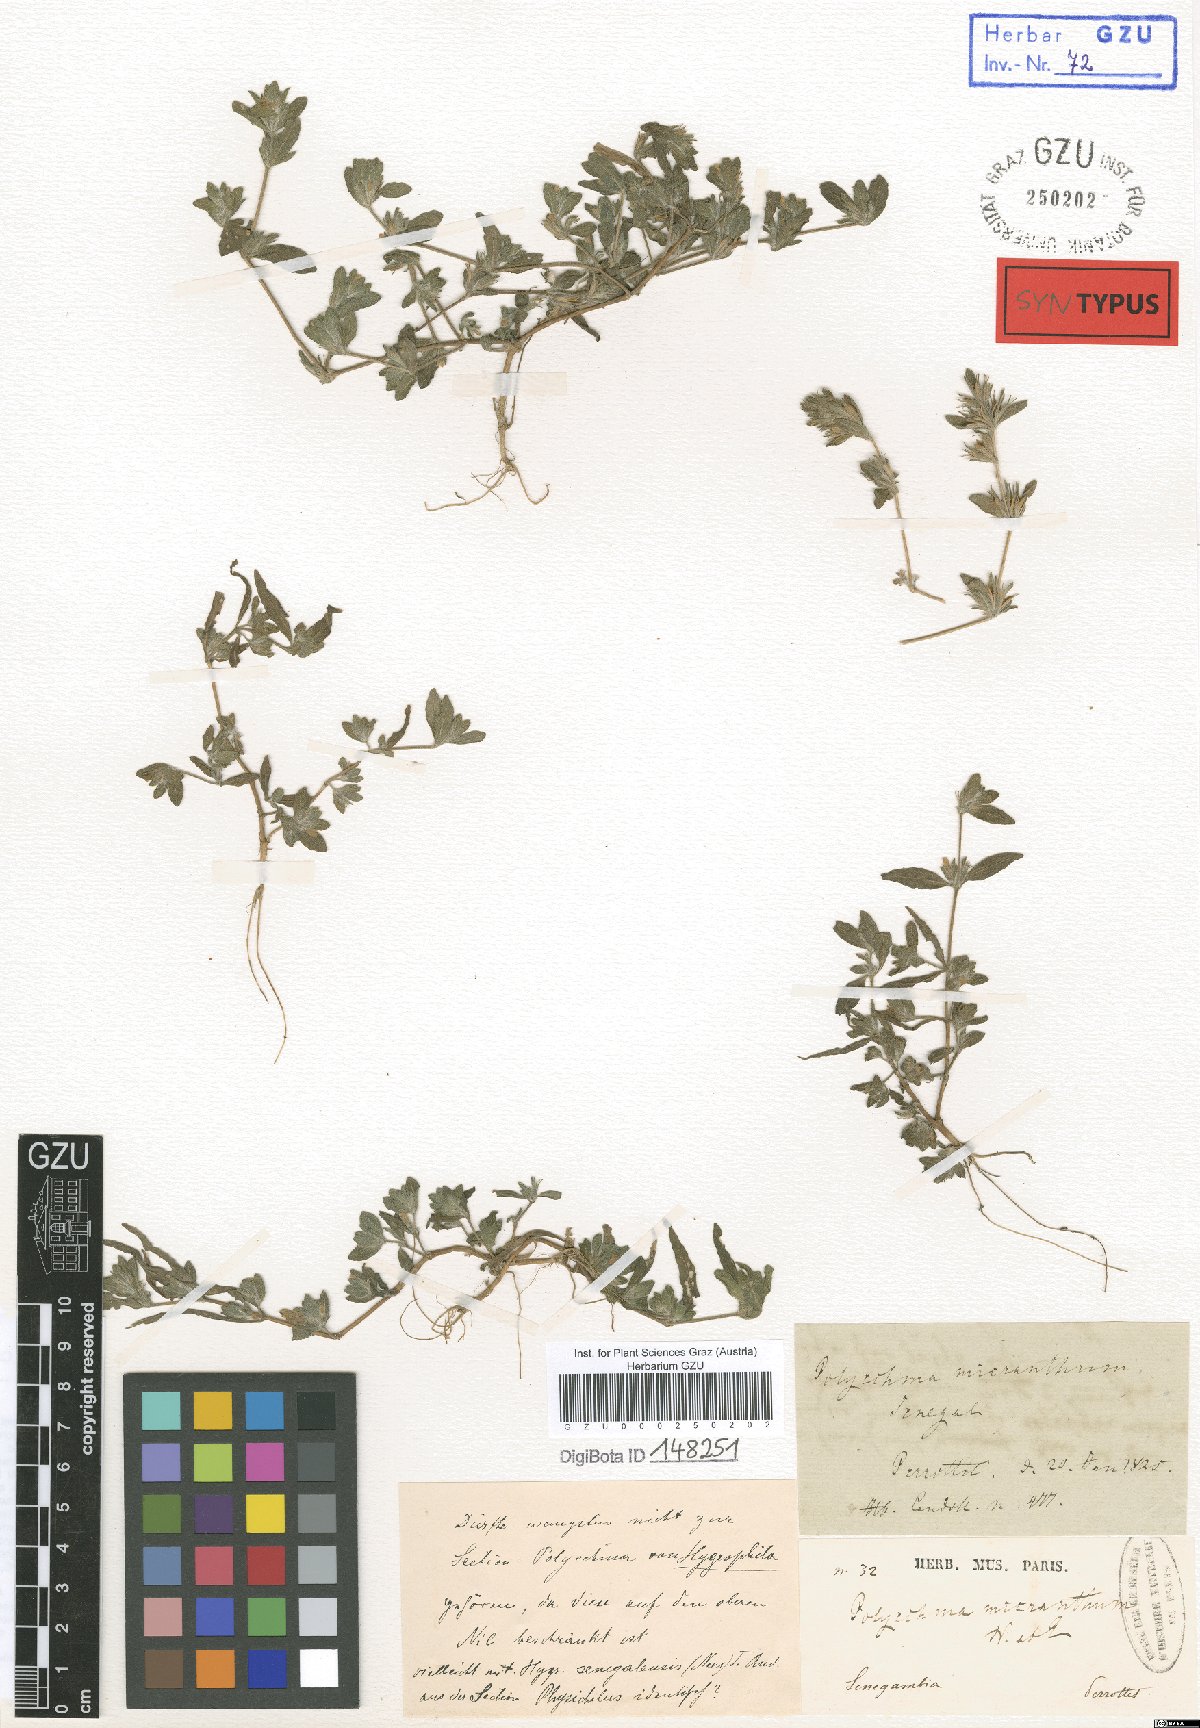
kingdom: Plantae
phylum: Tracheophyta
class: Magnoliopsida
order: Lamiales
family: Acanthaceae
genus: Hygrophila
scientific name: Hygrophila micrantha
